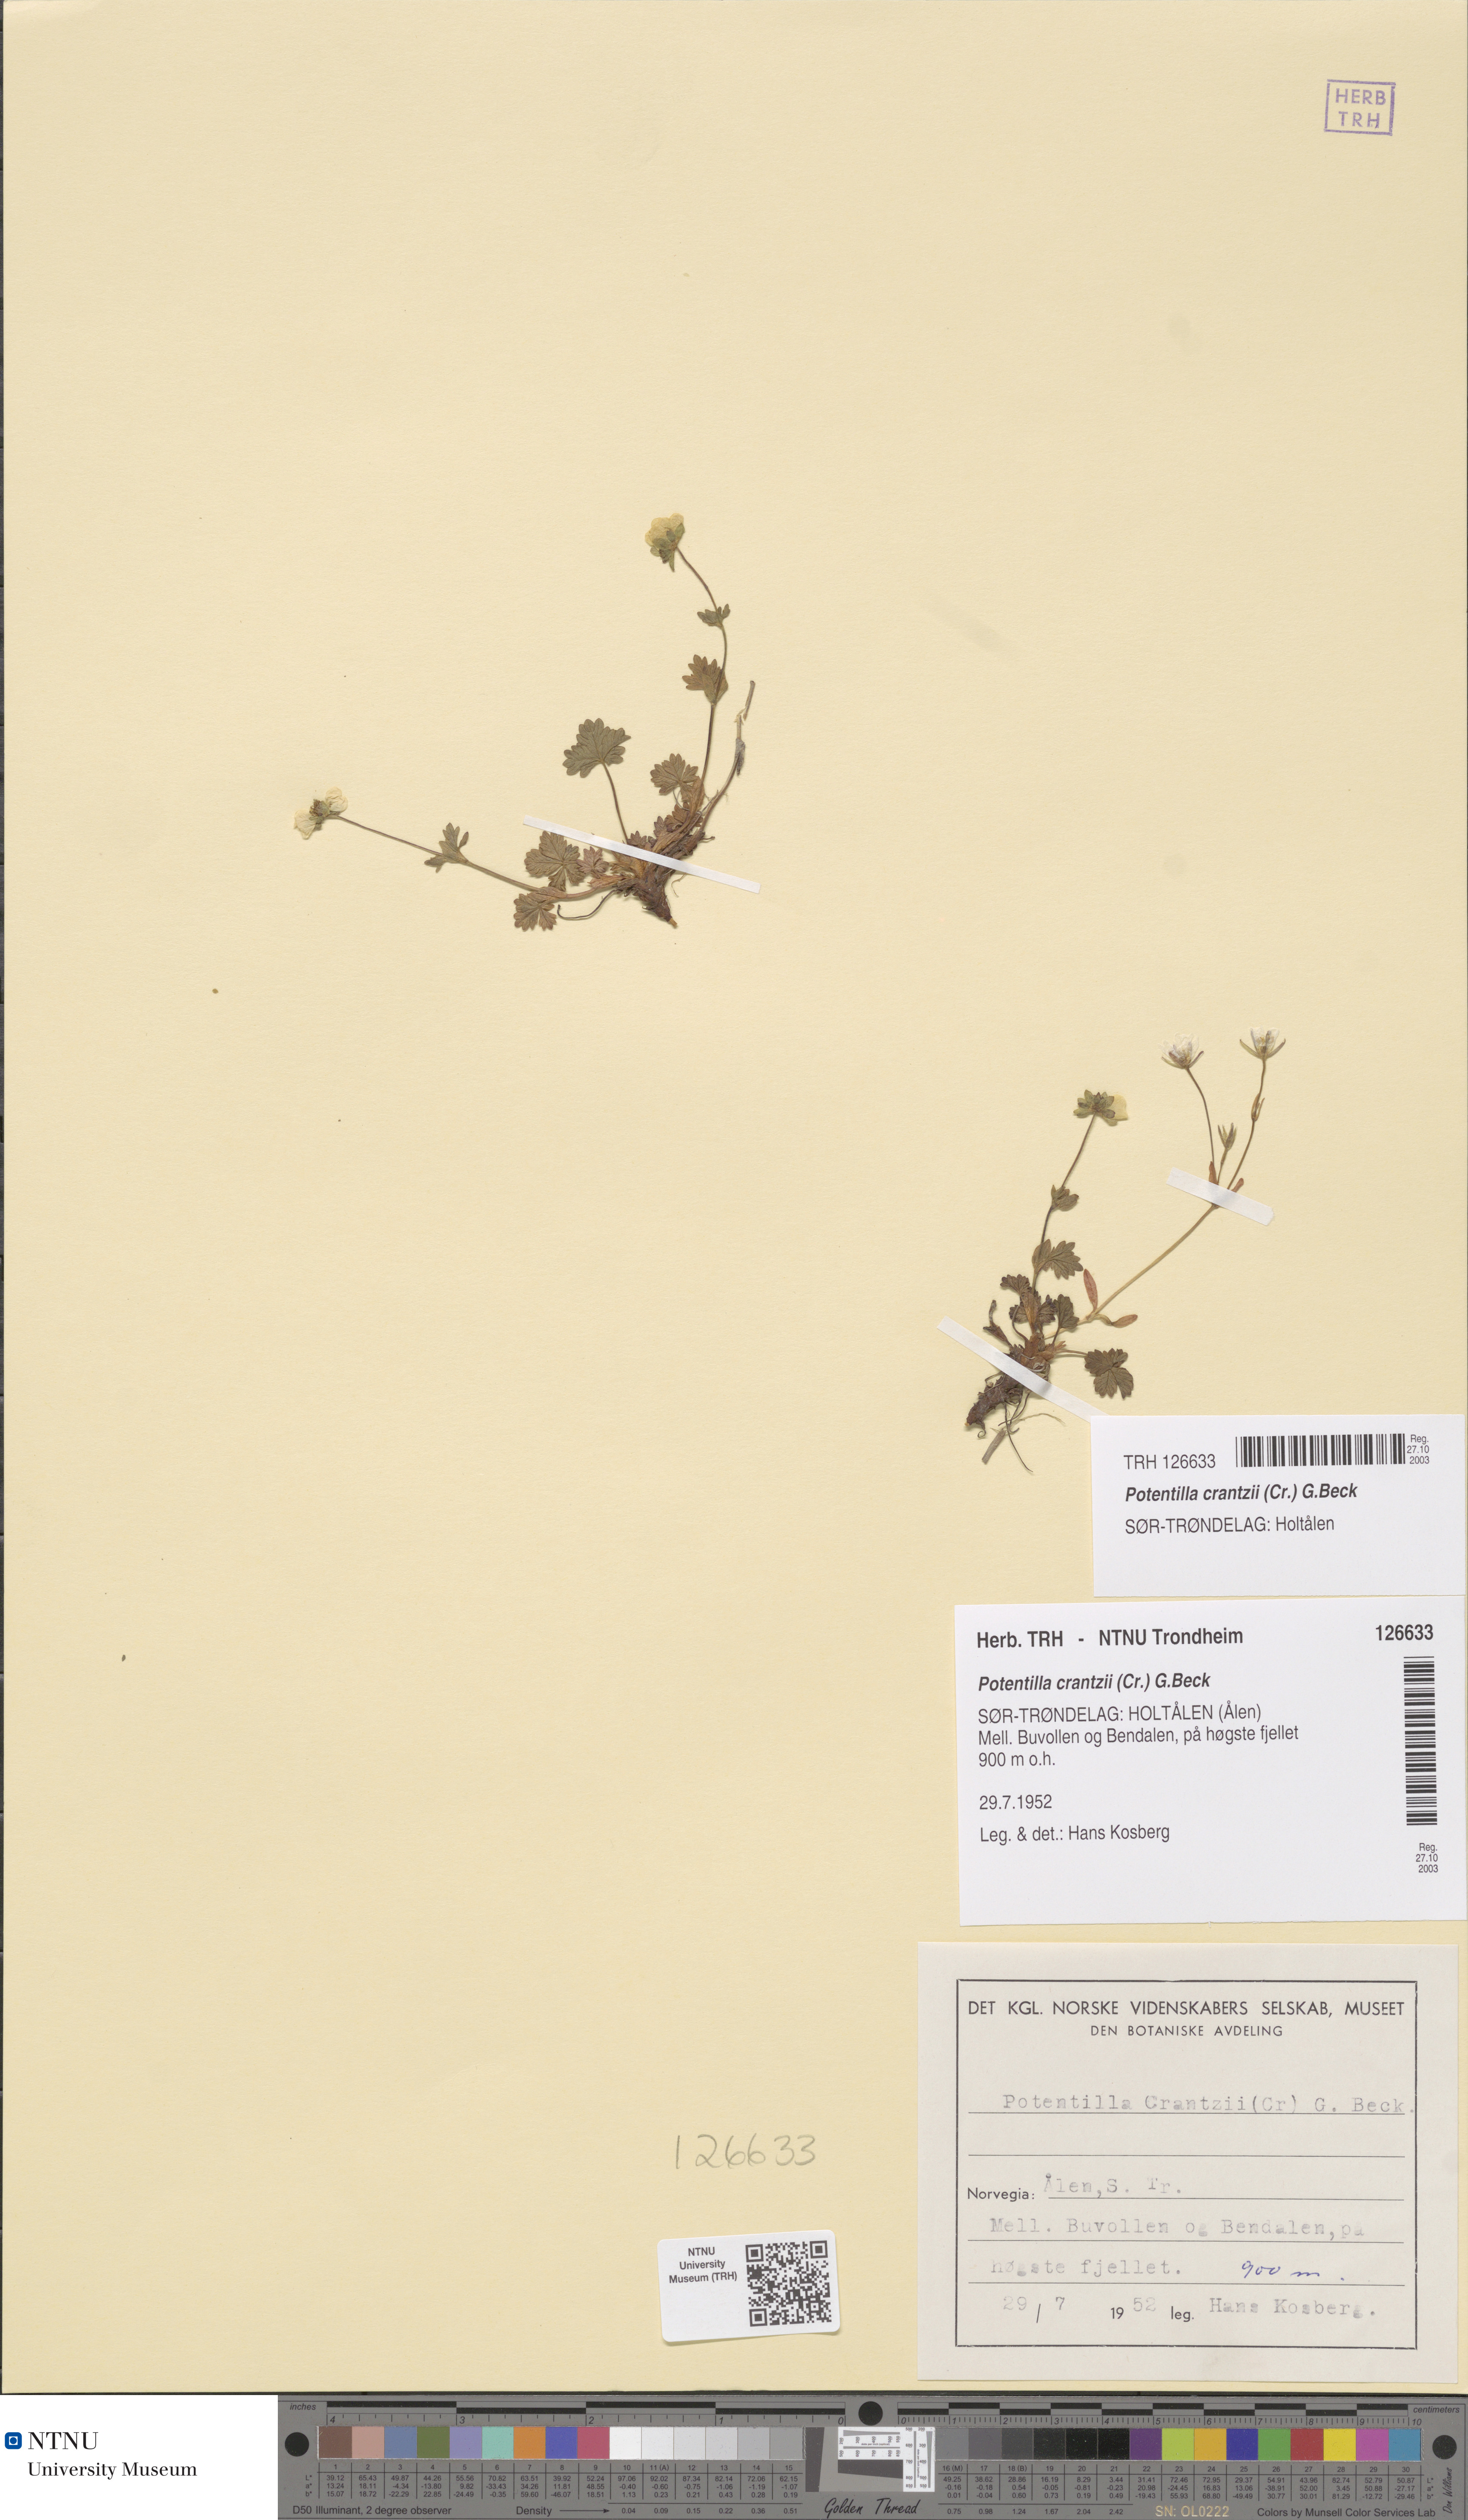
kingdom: Plantae
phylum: Tracheophyta
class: Magnoliopsida
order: Rosales
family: Rosaceae
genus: Potentilla
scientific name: Potentilla crantzii
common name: Alpine cinquefoil
